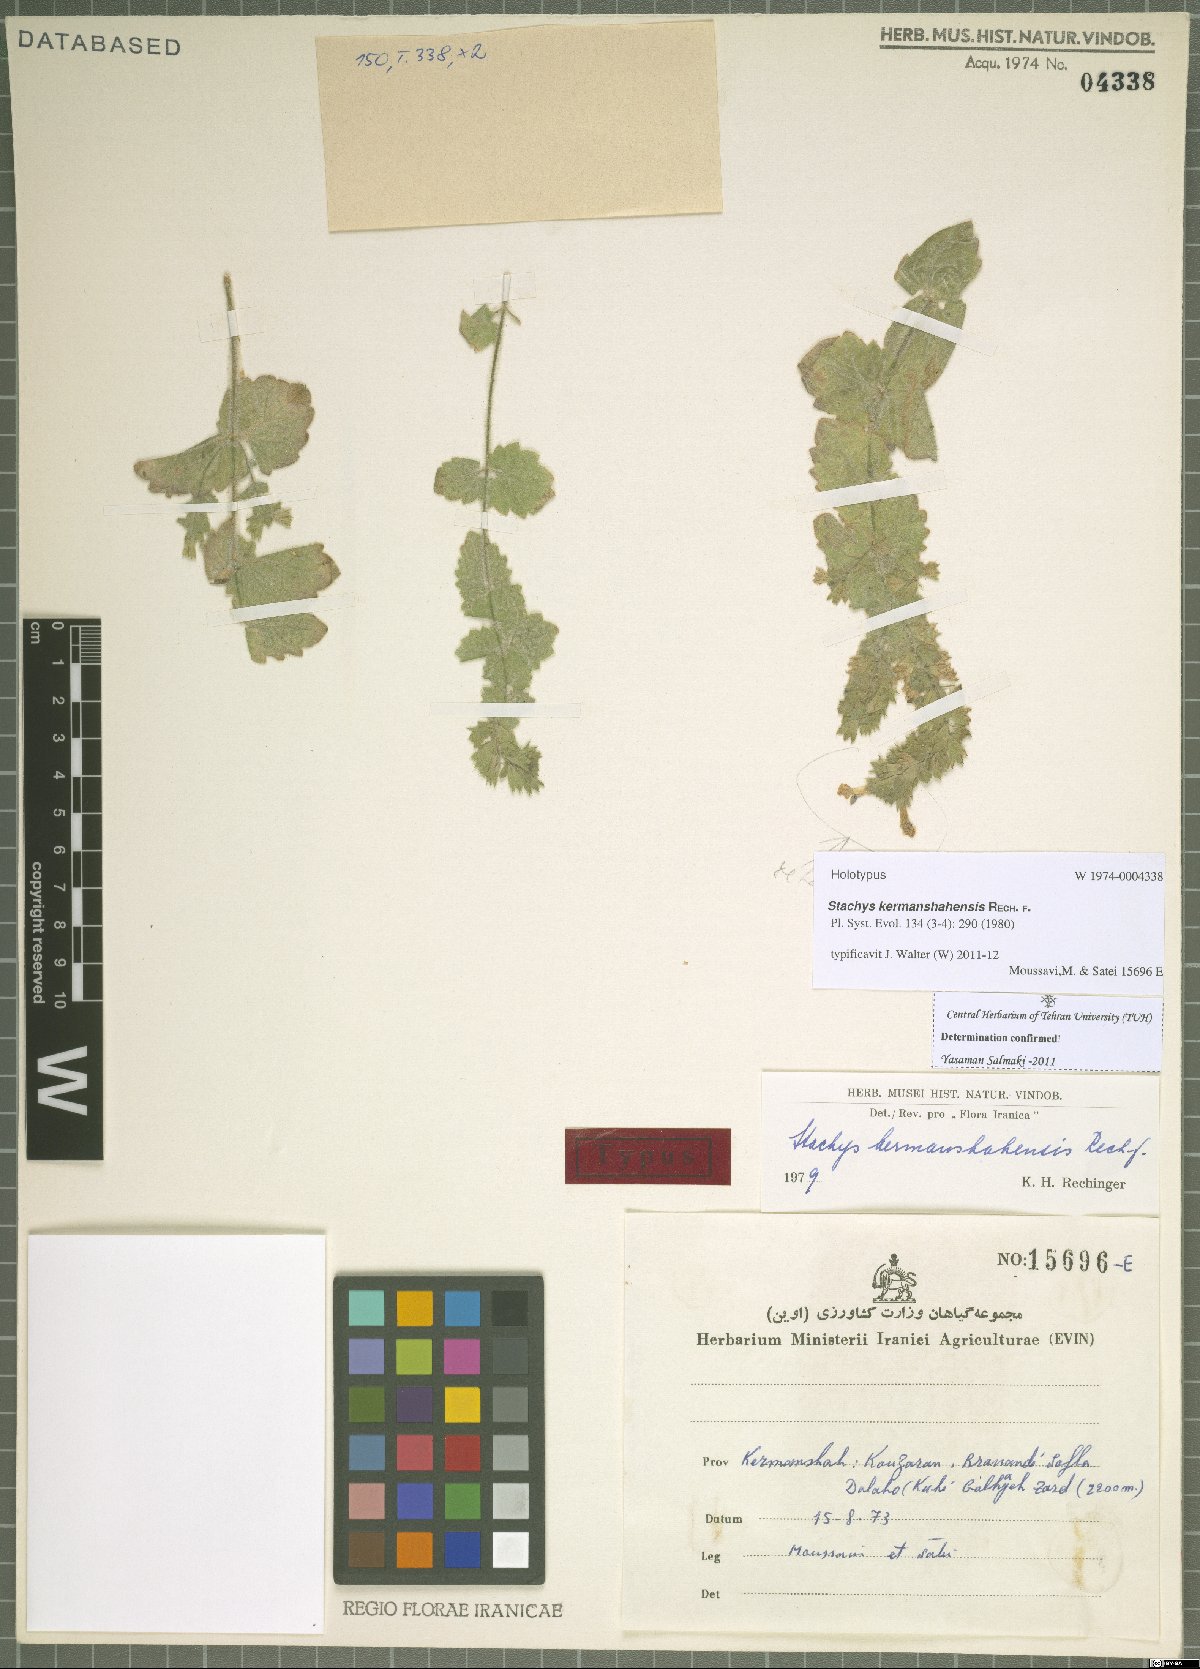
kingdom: Plantae
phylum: Tracheophyta
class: Magnoliopsida
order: Lamiales
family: Lamiaceae
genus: Stachys
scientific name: Stachys kermanshahensis
